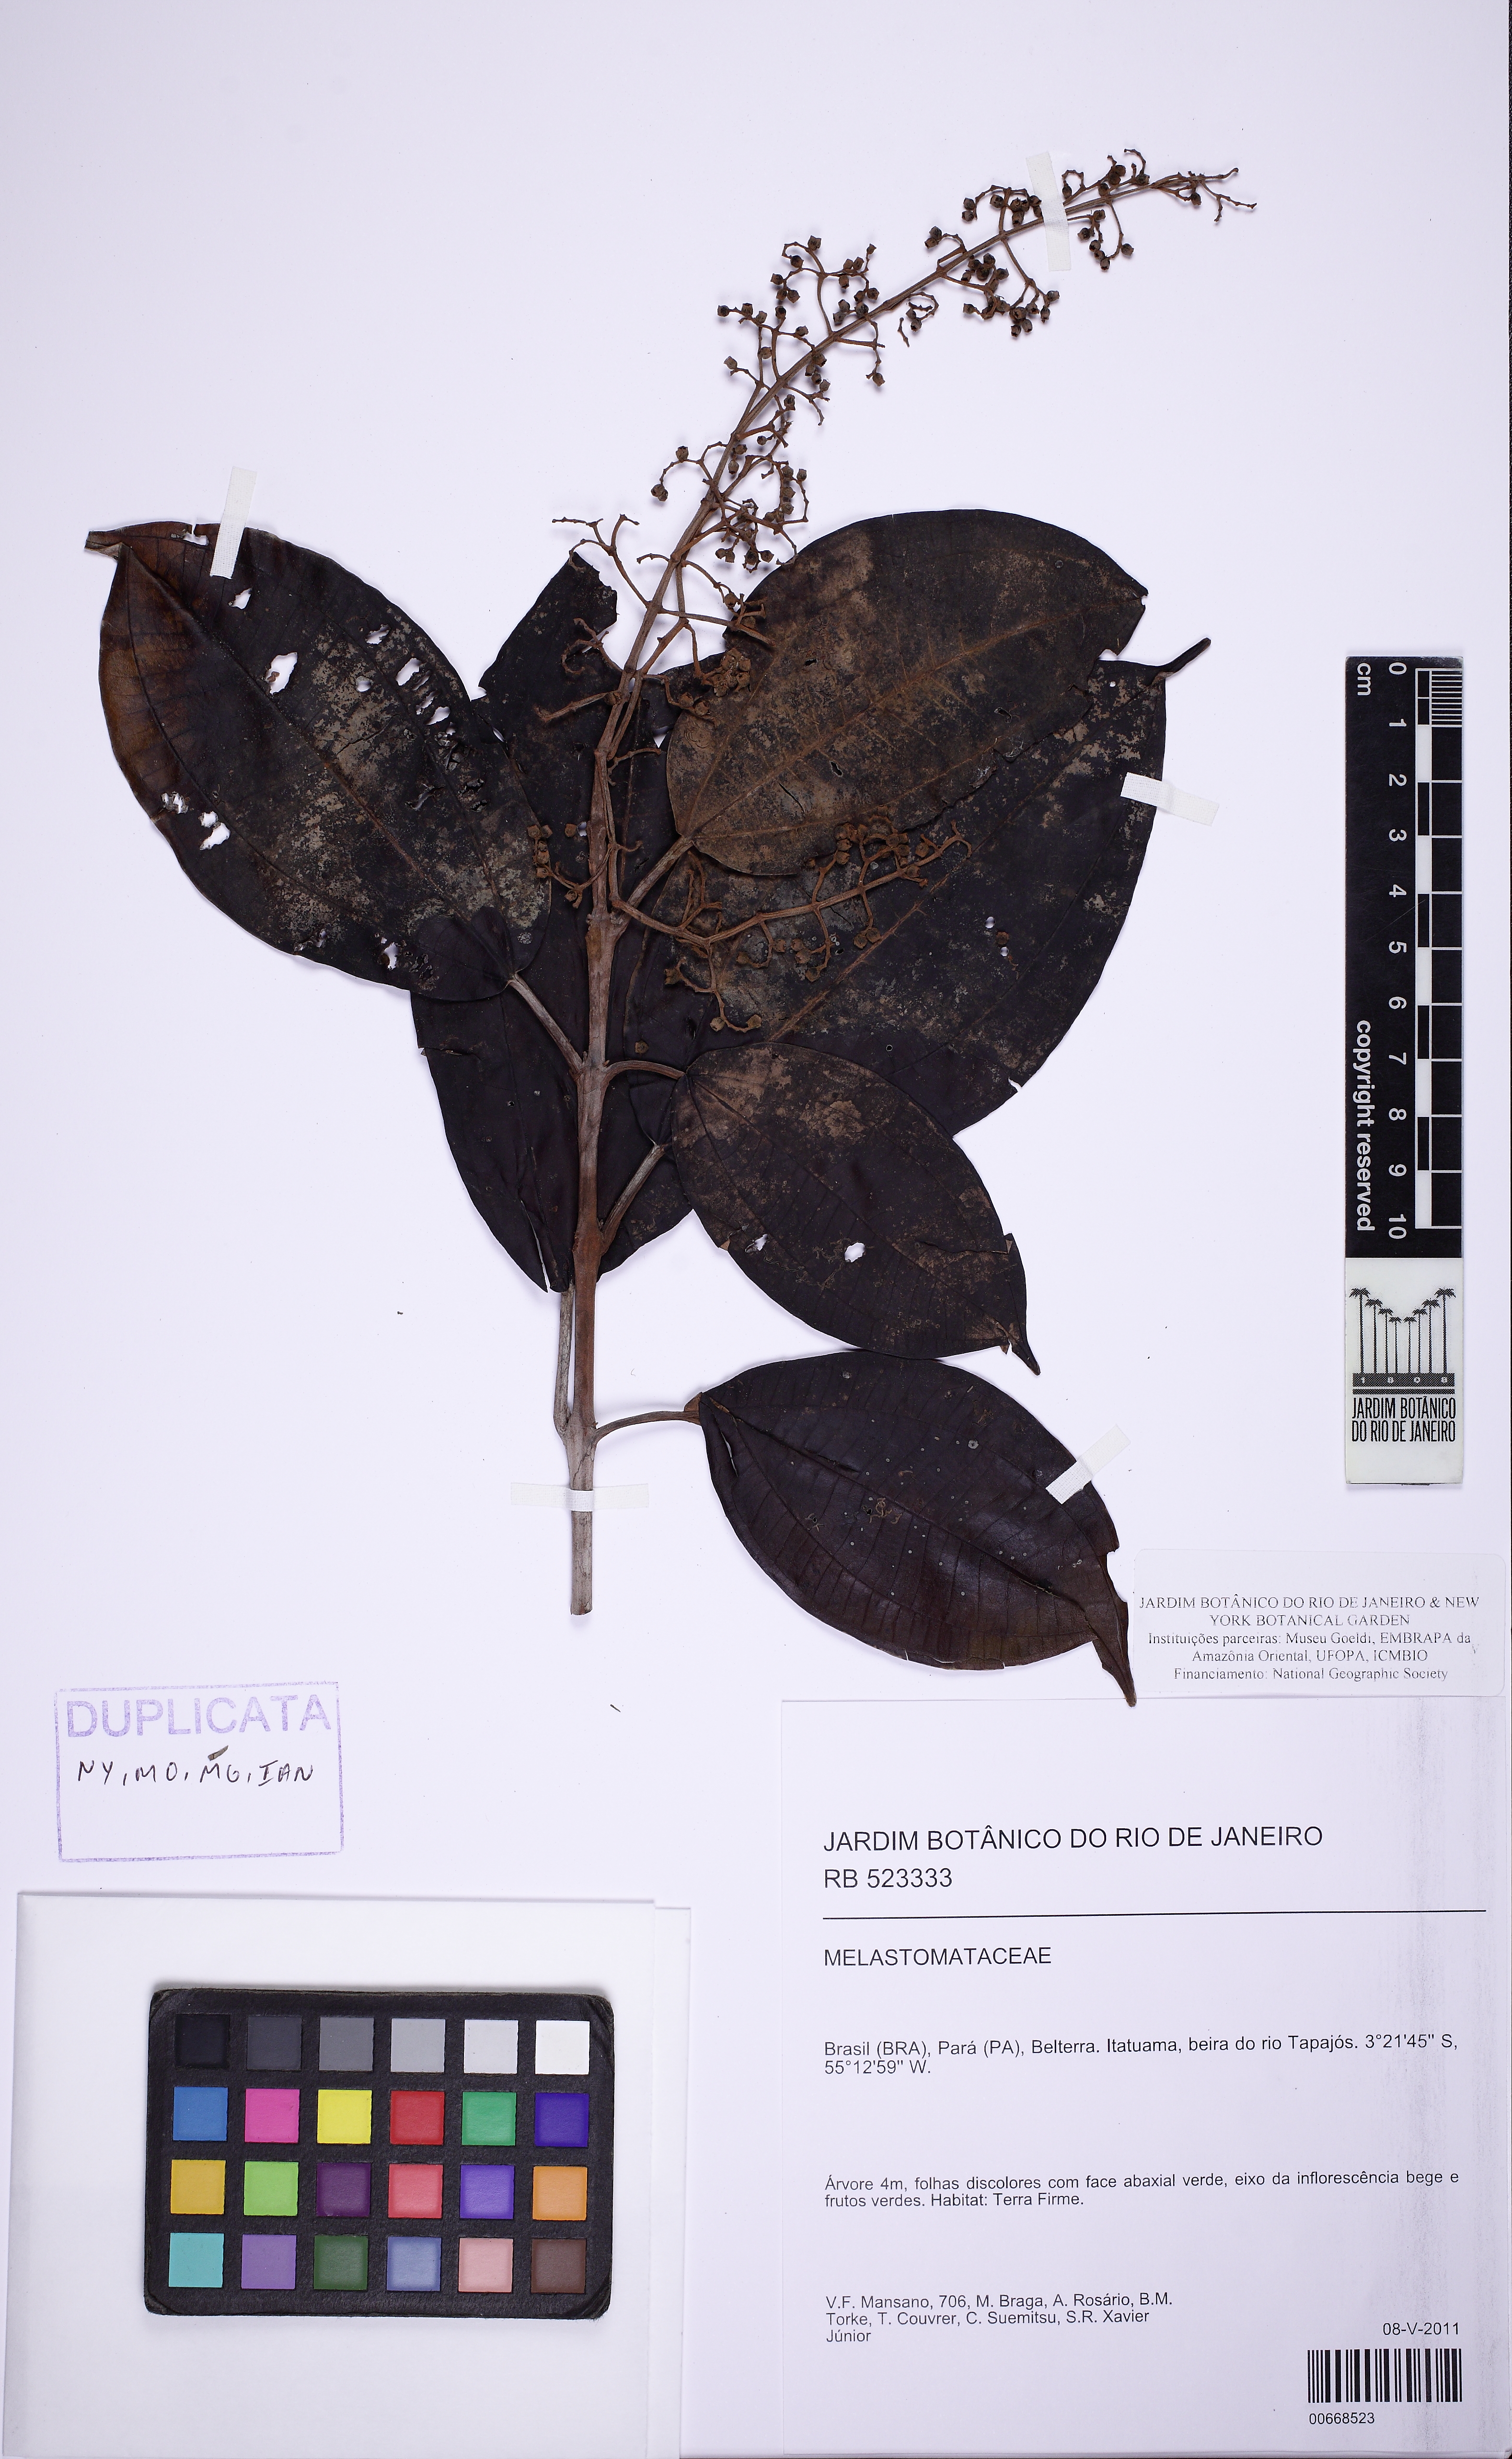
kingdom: Plantae
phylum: Tracheophyta
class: Magnoliopsida
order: Myrtales
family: Melastomataceae
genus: Miconia
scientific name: Miconia lepidota
